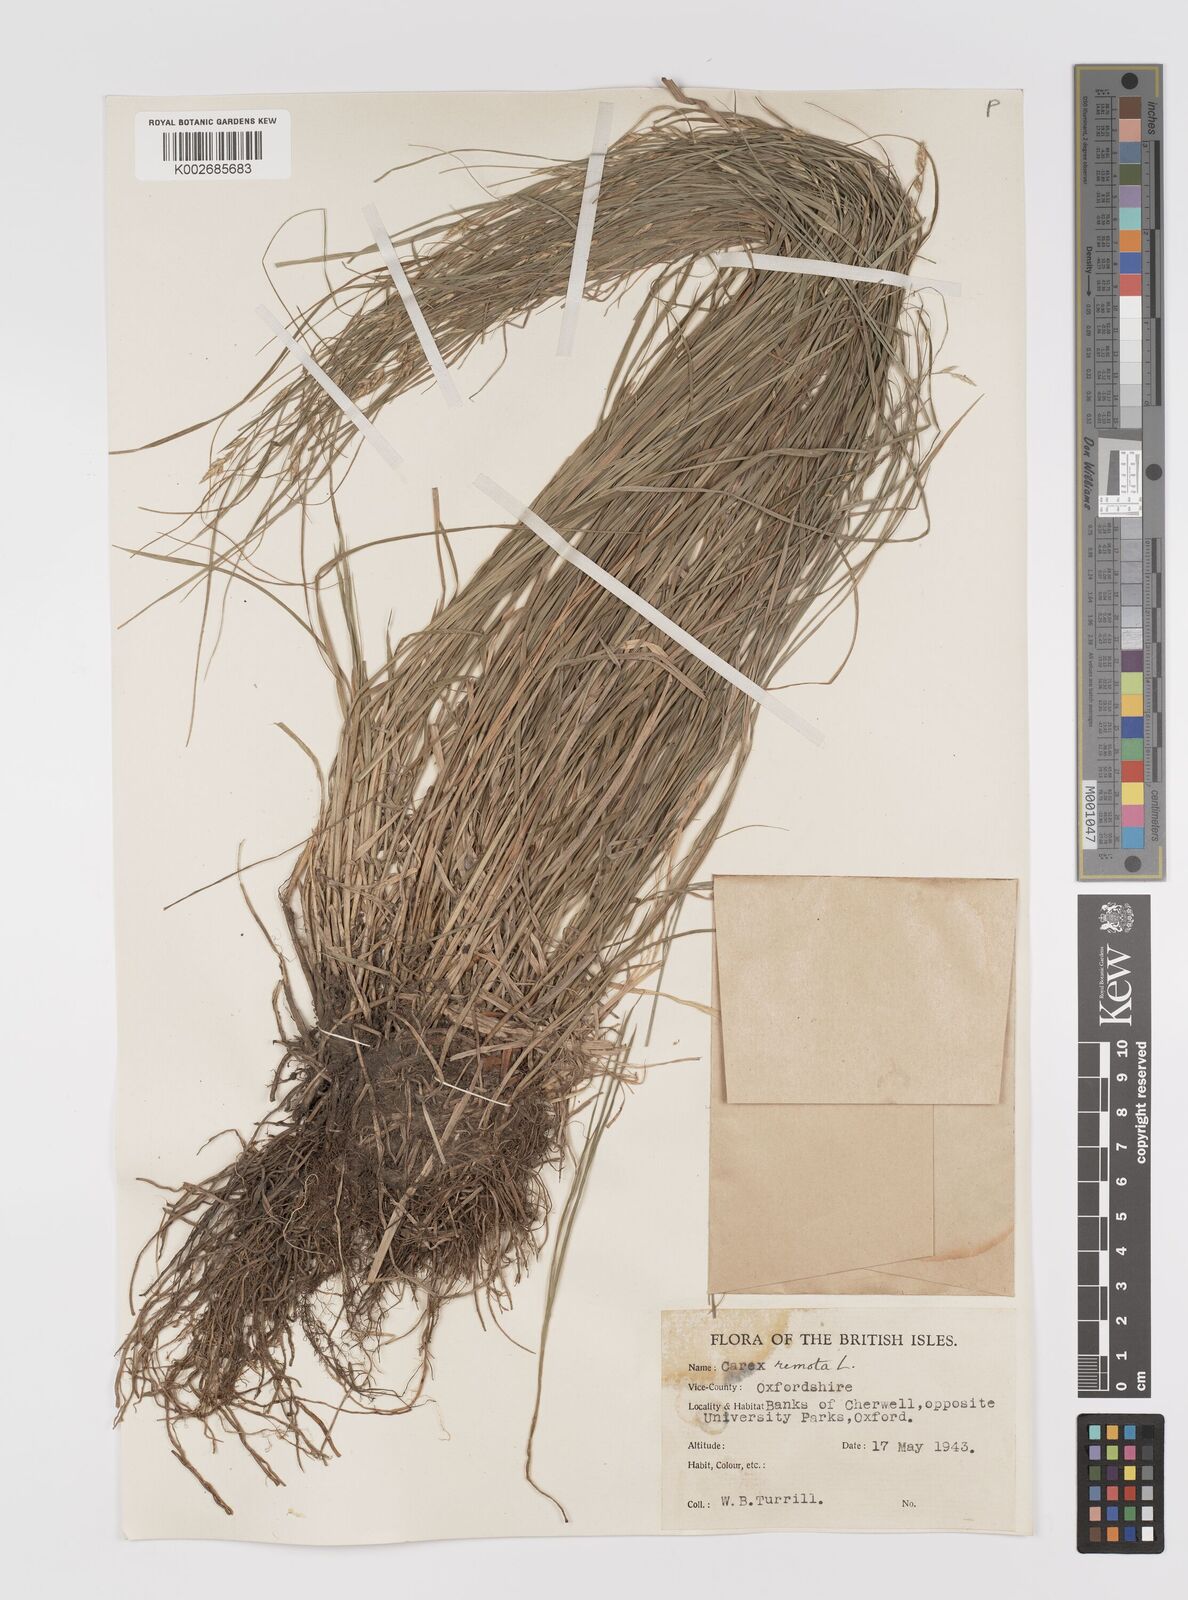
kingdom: Plantae
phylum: Tracheophyta
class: Liliopsida
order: Poales
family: Cyperaceae
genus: Carex
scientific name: Carex remota
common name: Remote sedge
